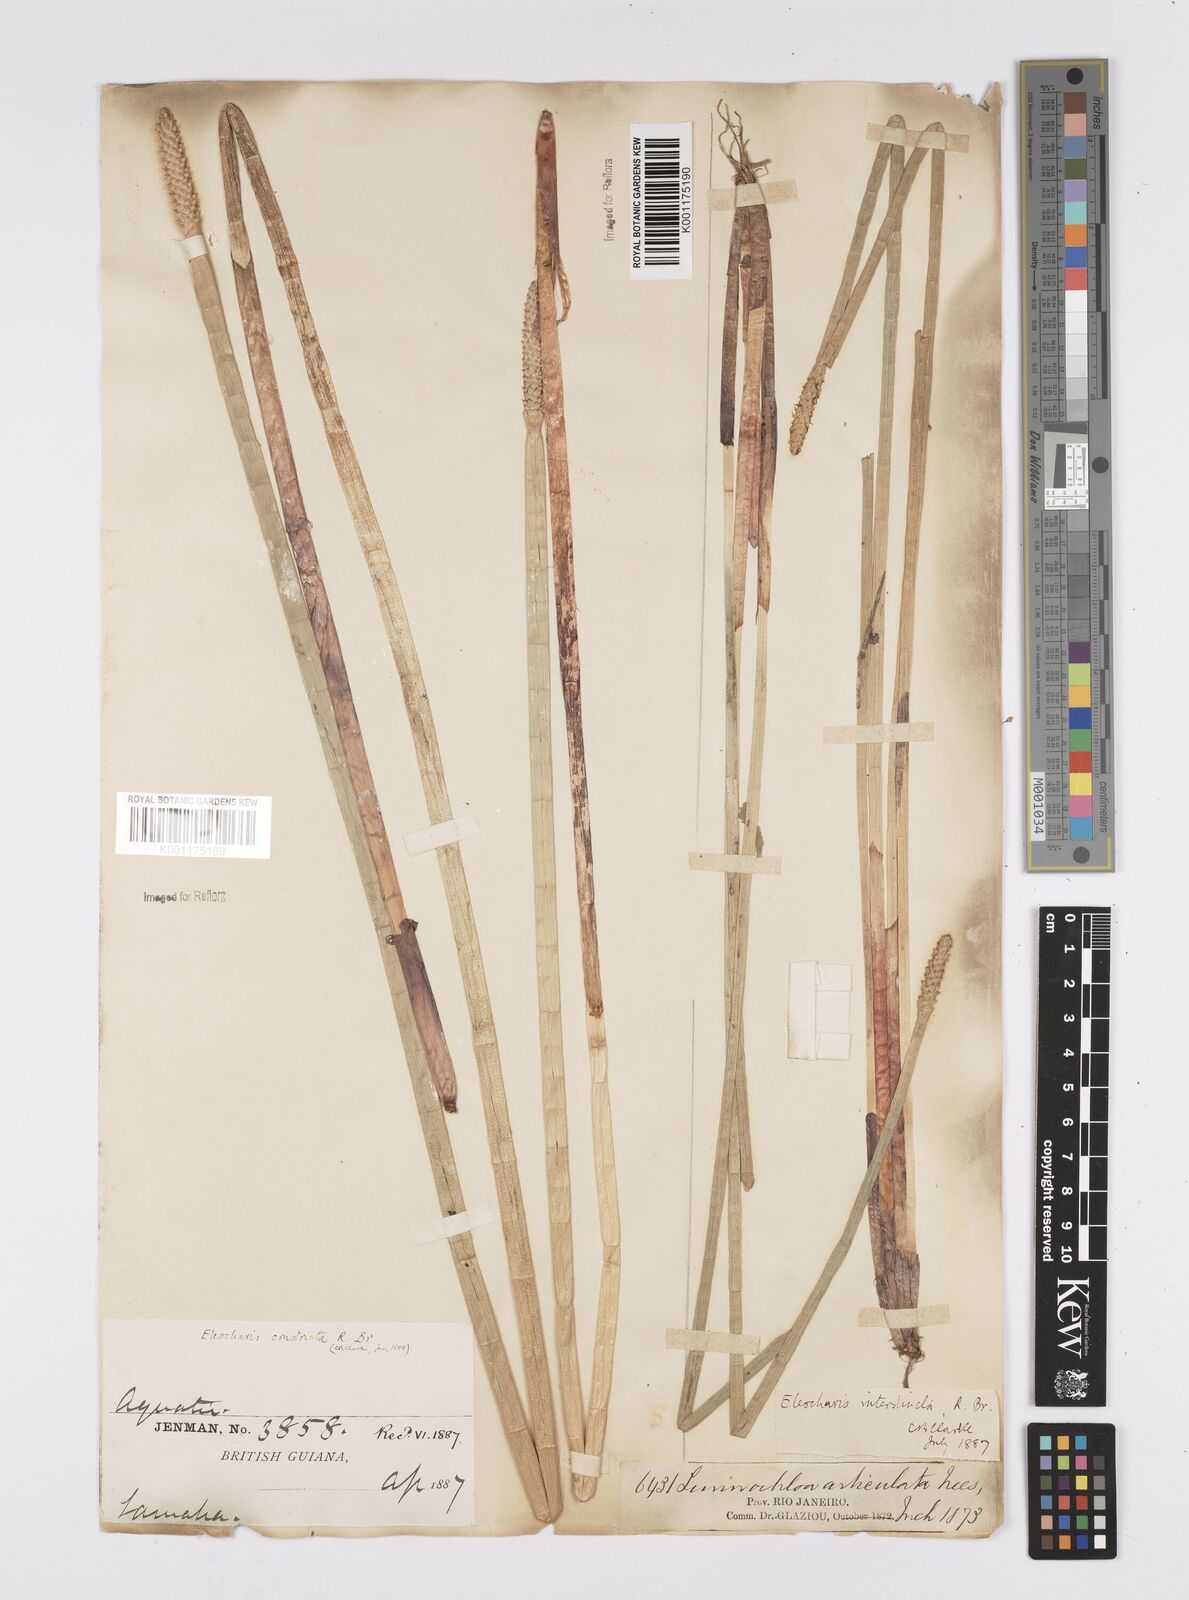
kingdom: Plantae
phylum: Tracheophyta
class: Liliopsida
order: Poales
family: Cyperaceae
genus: Eleocharis
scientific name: Eleocharis interstincta
